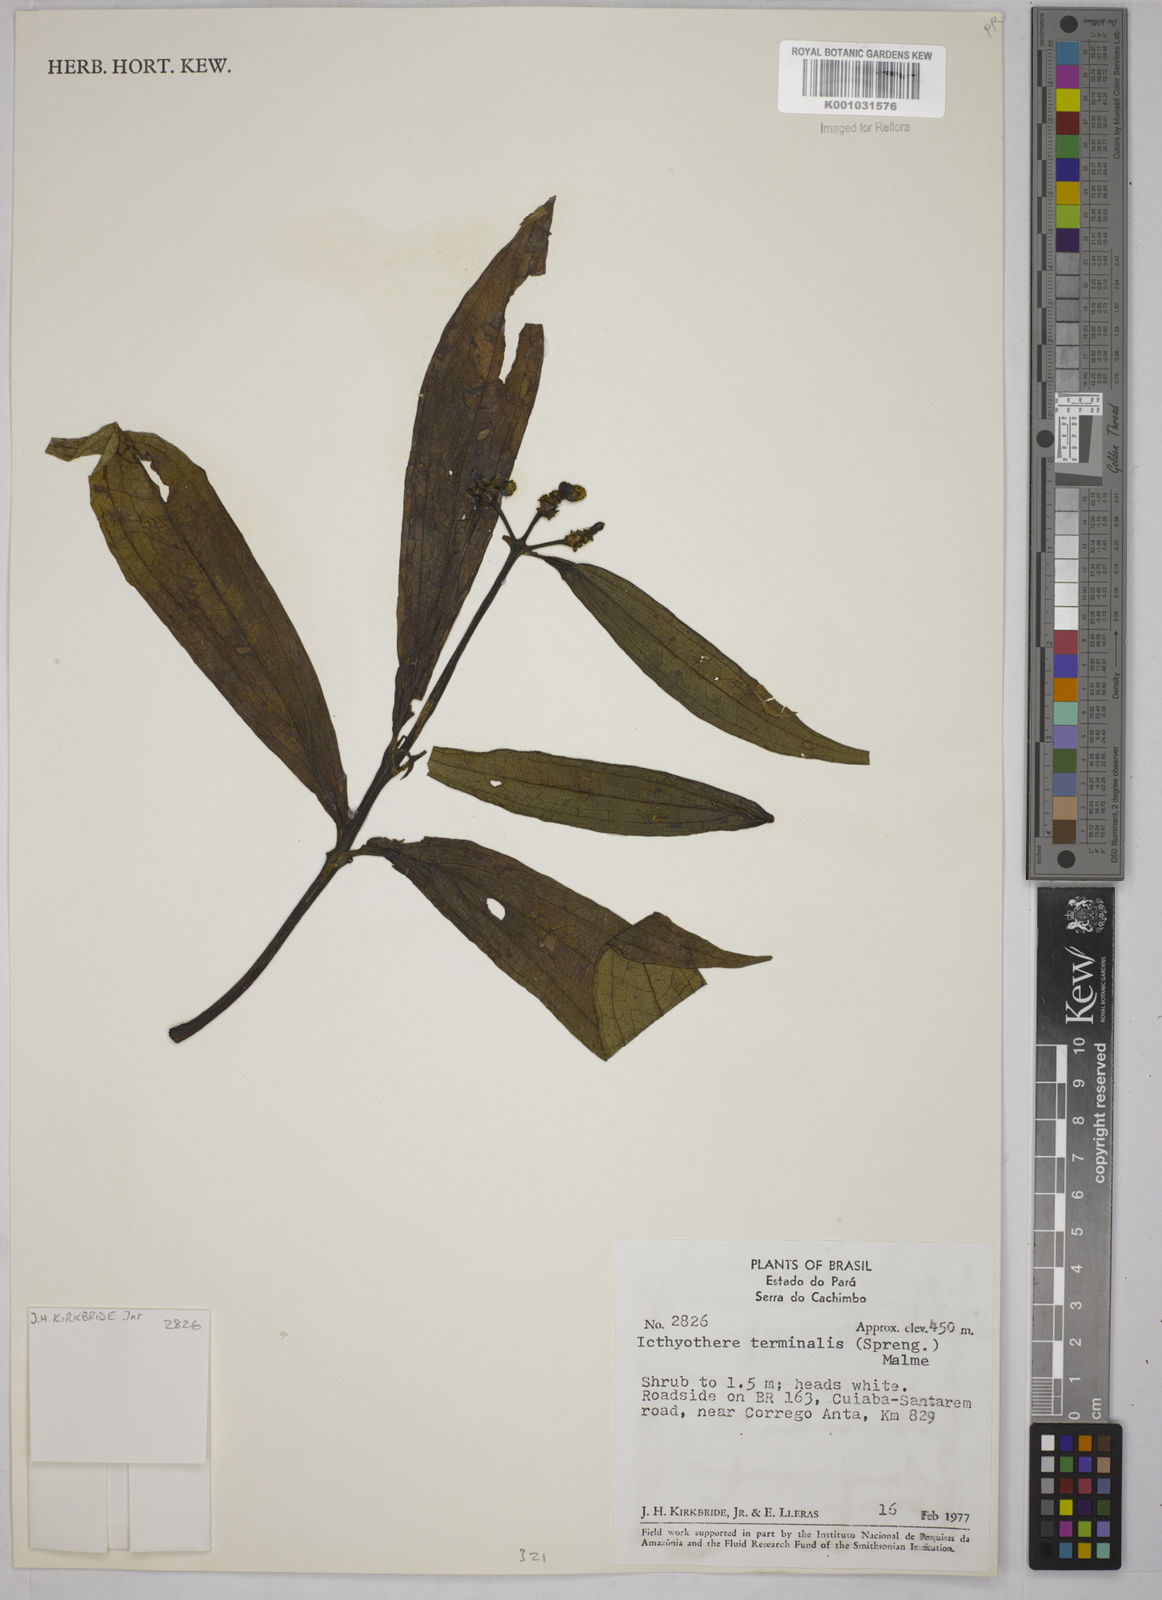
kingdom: Plantae
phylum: Tracheophyta
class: Magnoliopsida
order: Asterales
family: Asteraceae
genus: Ichthyothere
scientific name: Ichthyothere cunabi
